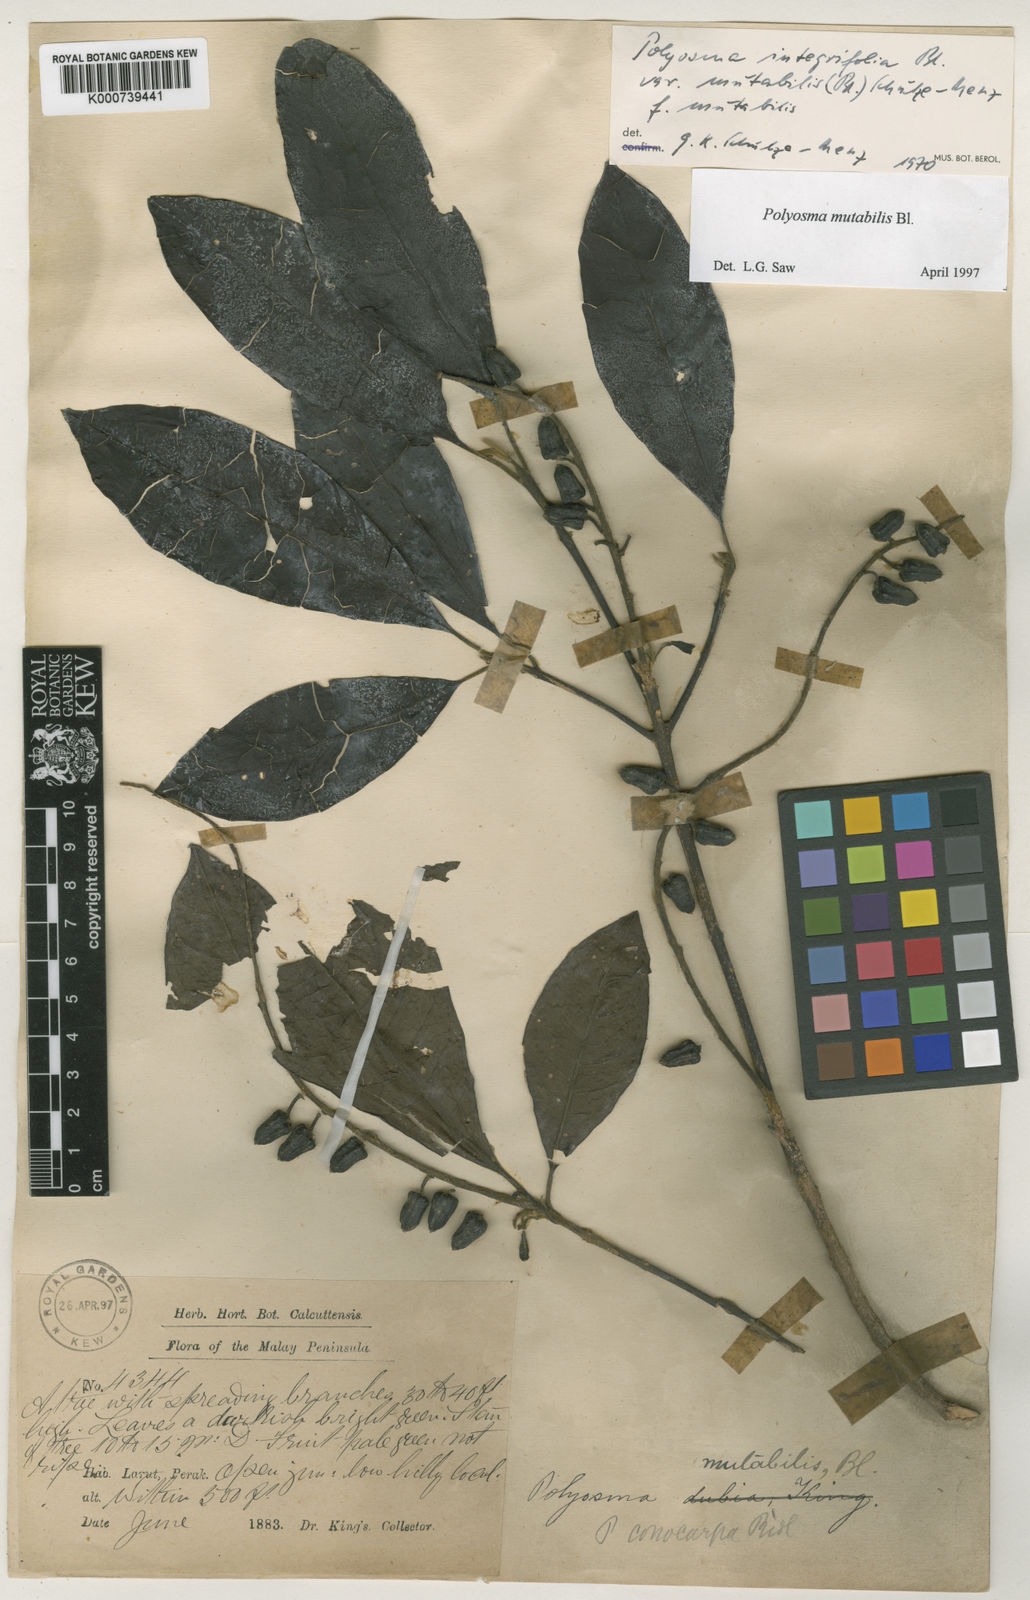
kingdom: Plantae
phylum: Tracheophyta
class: Magnoliopsida
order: Escalloniales
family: Escalloniaceae
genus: Polyosma
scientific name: Polyosma fragrans
